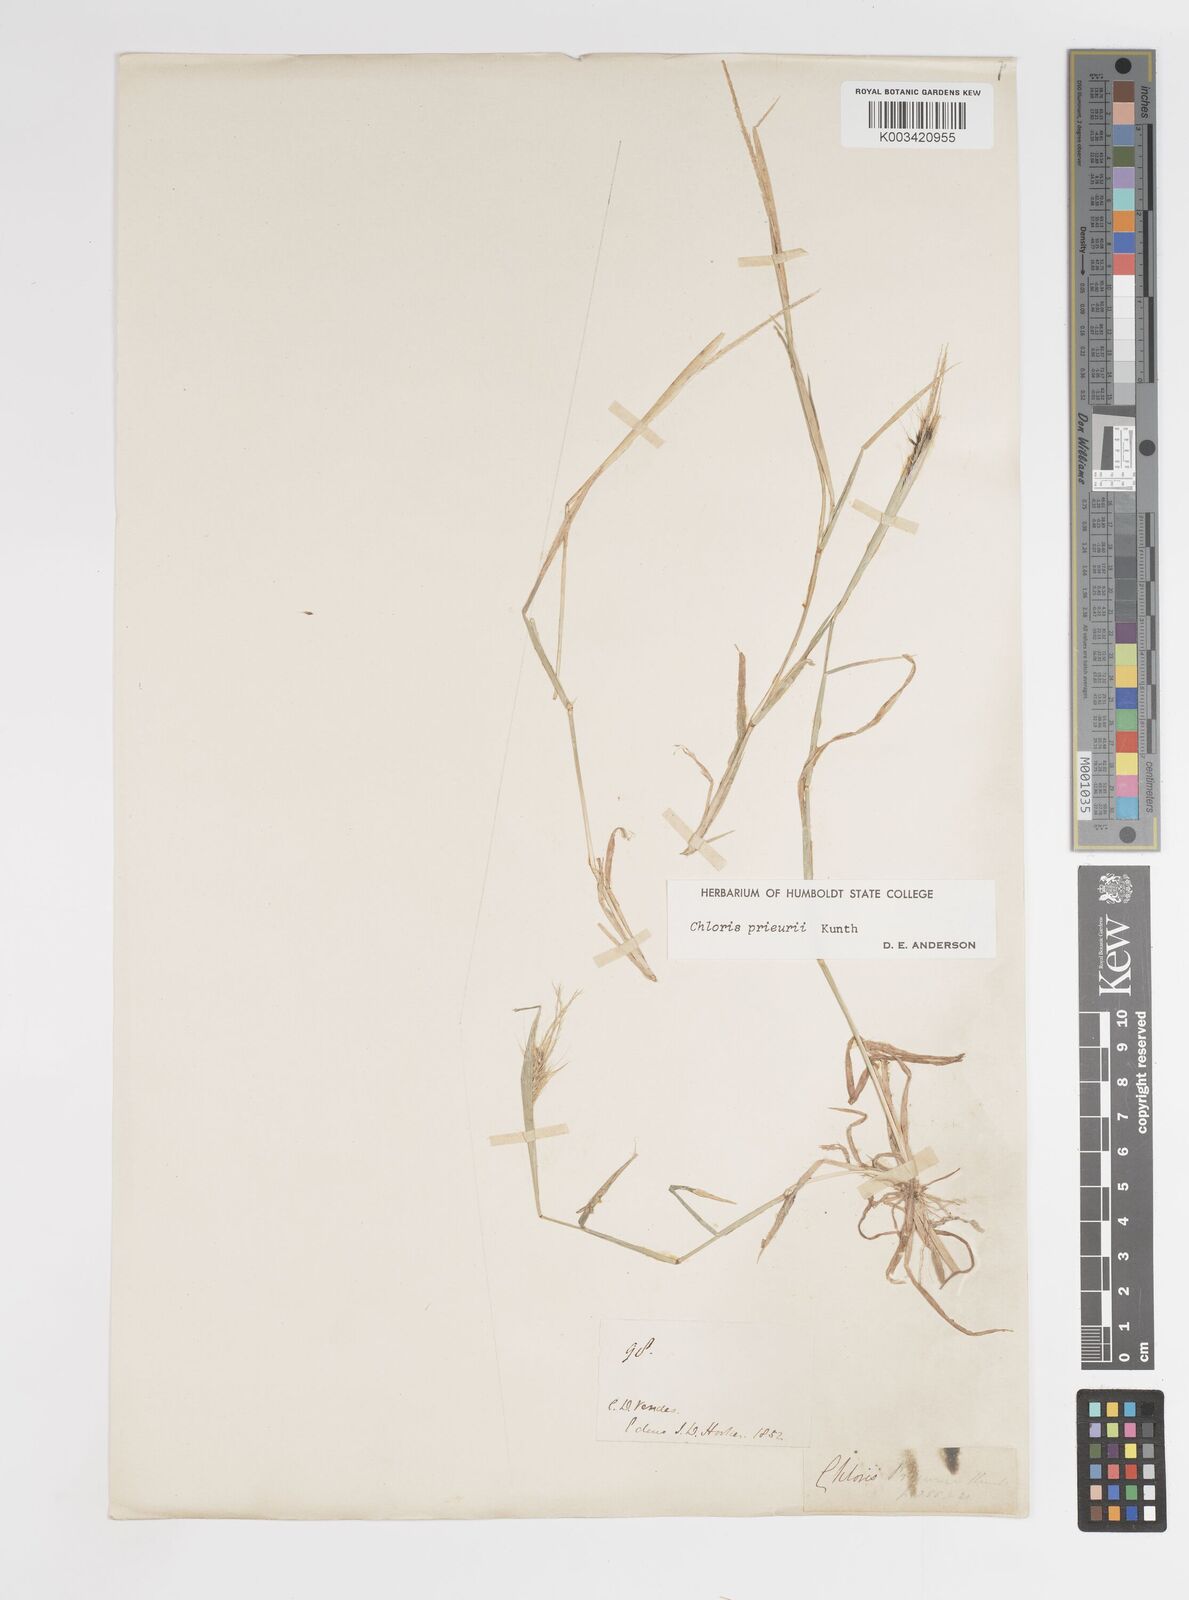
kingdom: Plantae
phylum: Tracheophyta
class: Liliopsida
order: Poales
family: Poaceae
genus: Enteropogon
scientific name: Enteropogon prieurii
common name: Prieur's umbrellagrass
